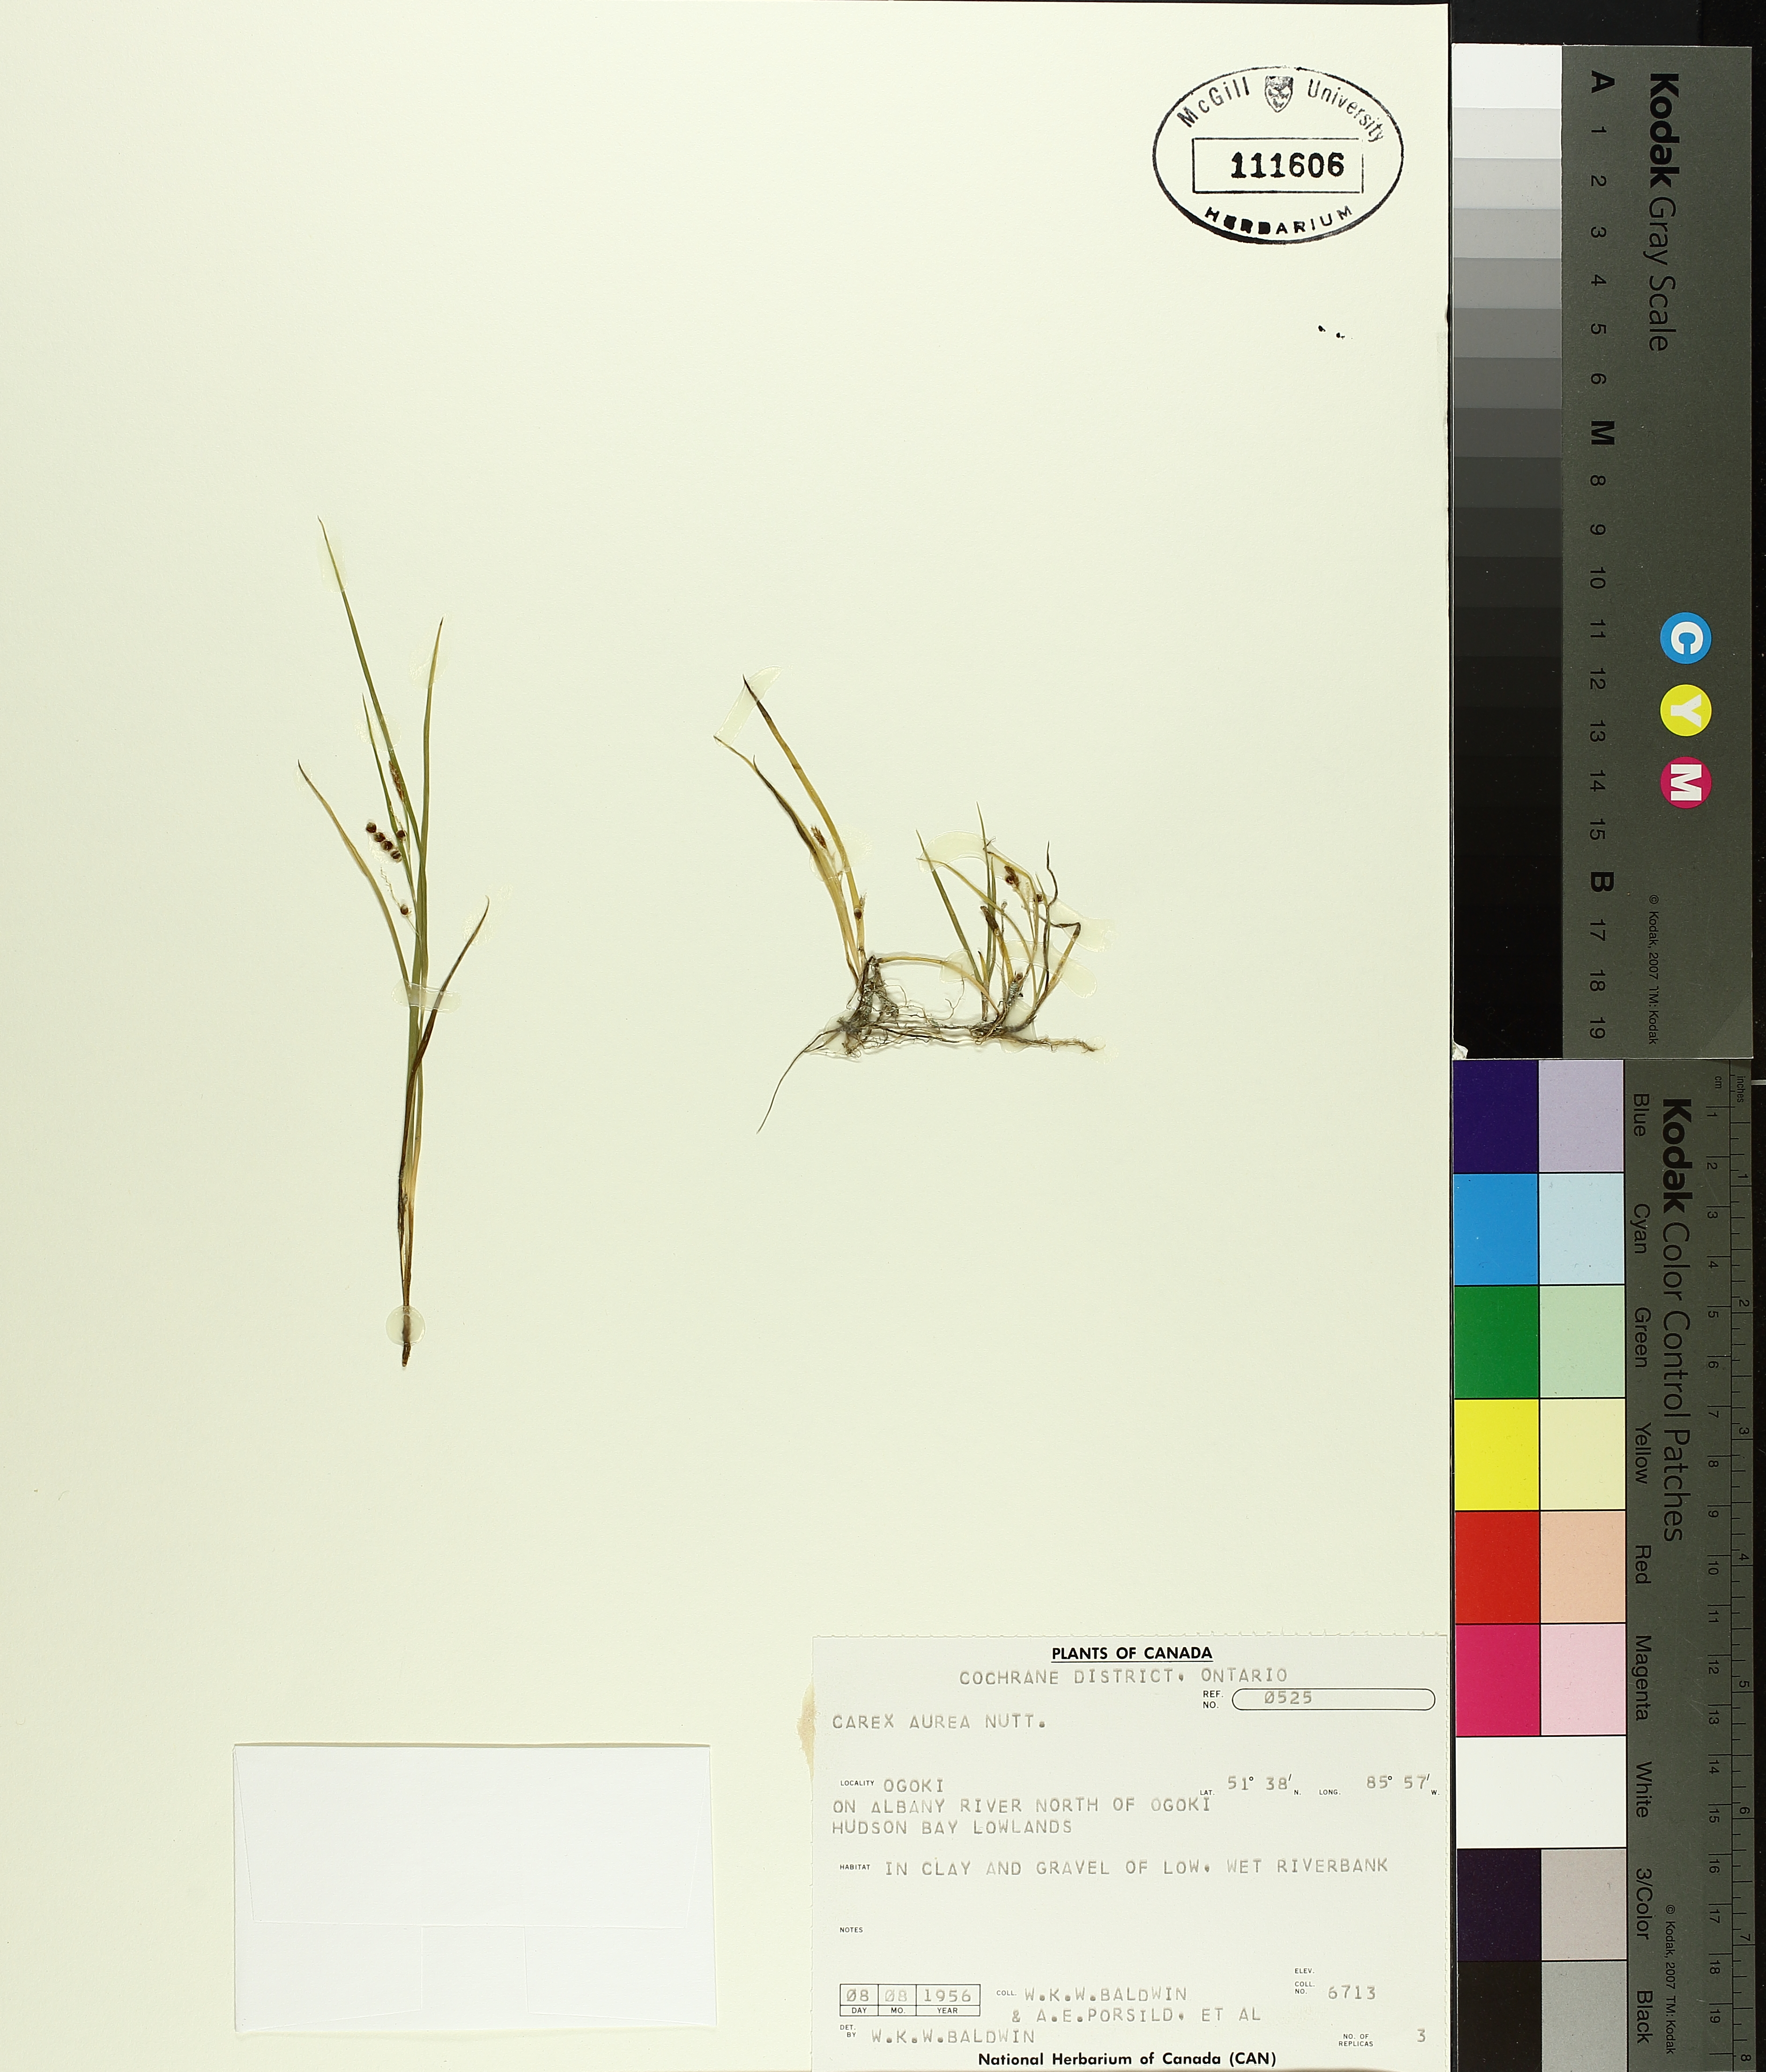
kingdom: Plantae
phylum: Tracheophyta
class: Liliopsida
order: Poales
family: Cyperaceae
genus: Carex
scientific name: Carex aurea
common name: Golden sedge
